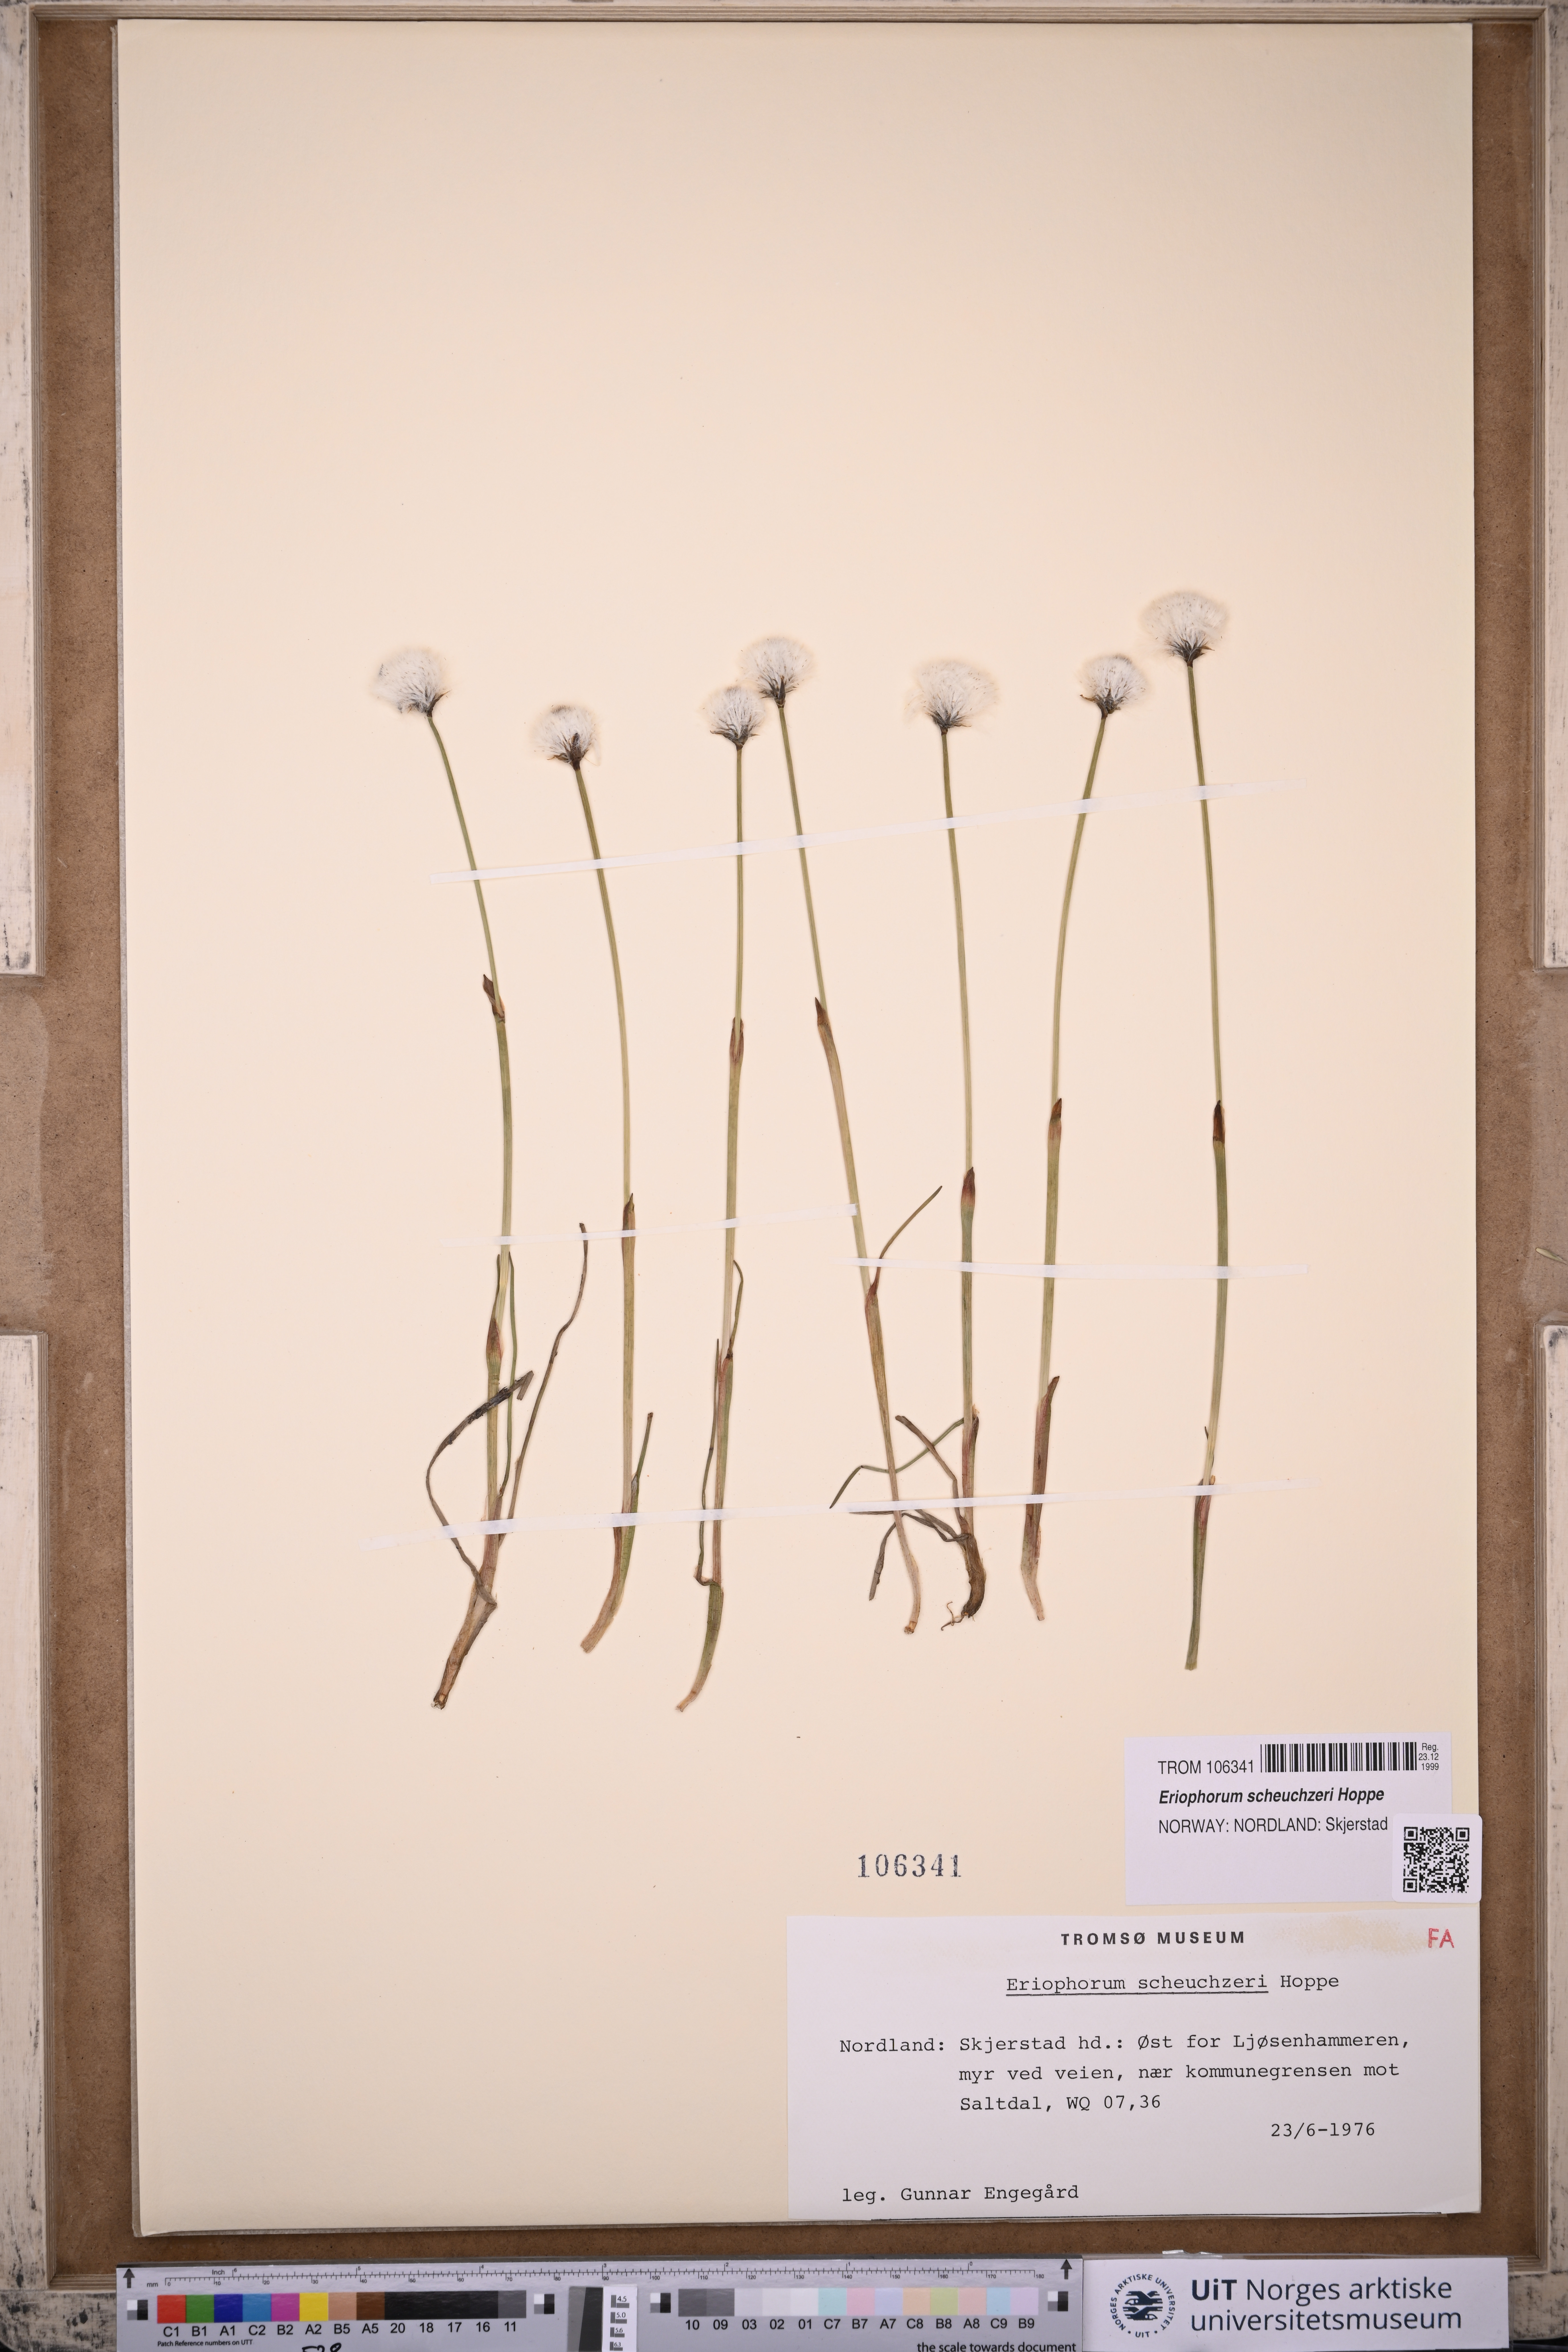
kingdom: Plantae
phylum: Tracheophyta
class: Liliopsida
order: Poales
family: Cyperaceae
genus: Eriophorum
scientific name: Eriophorum scheuchzeri
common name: Scheuchzer's cottongrass
